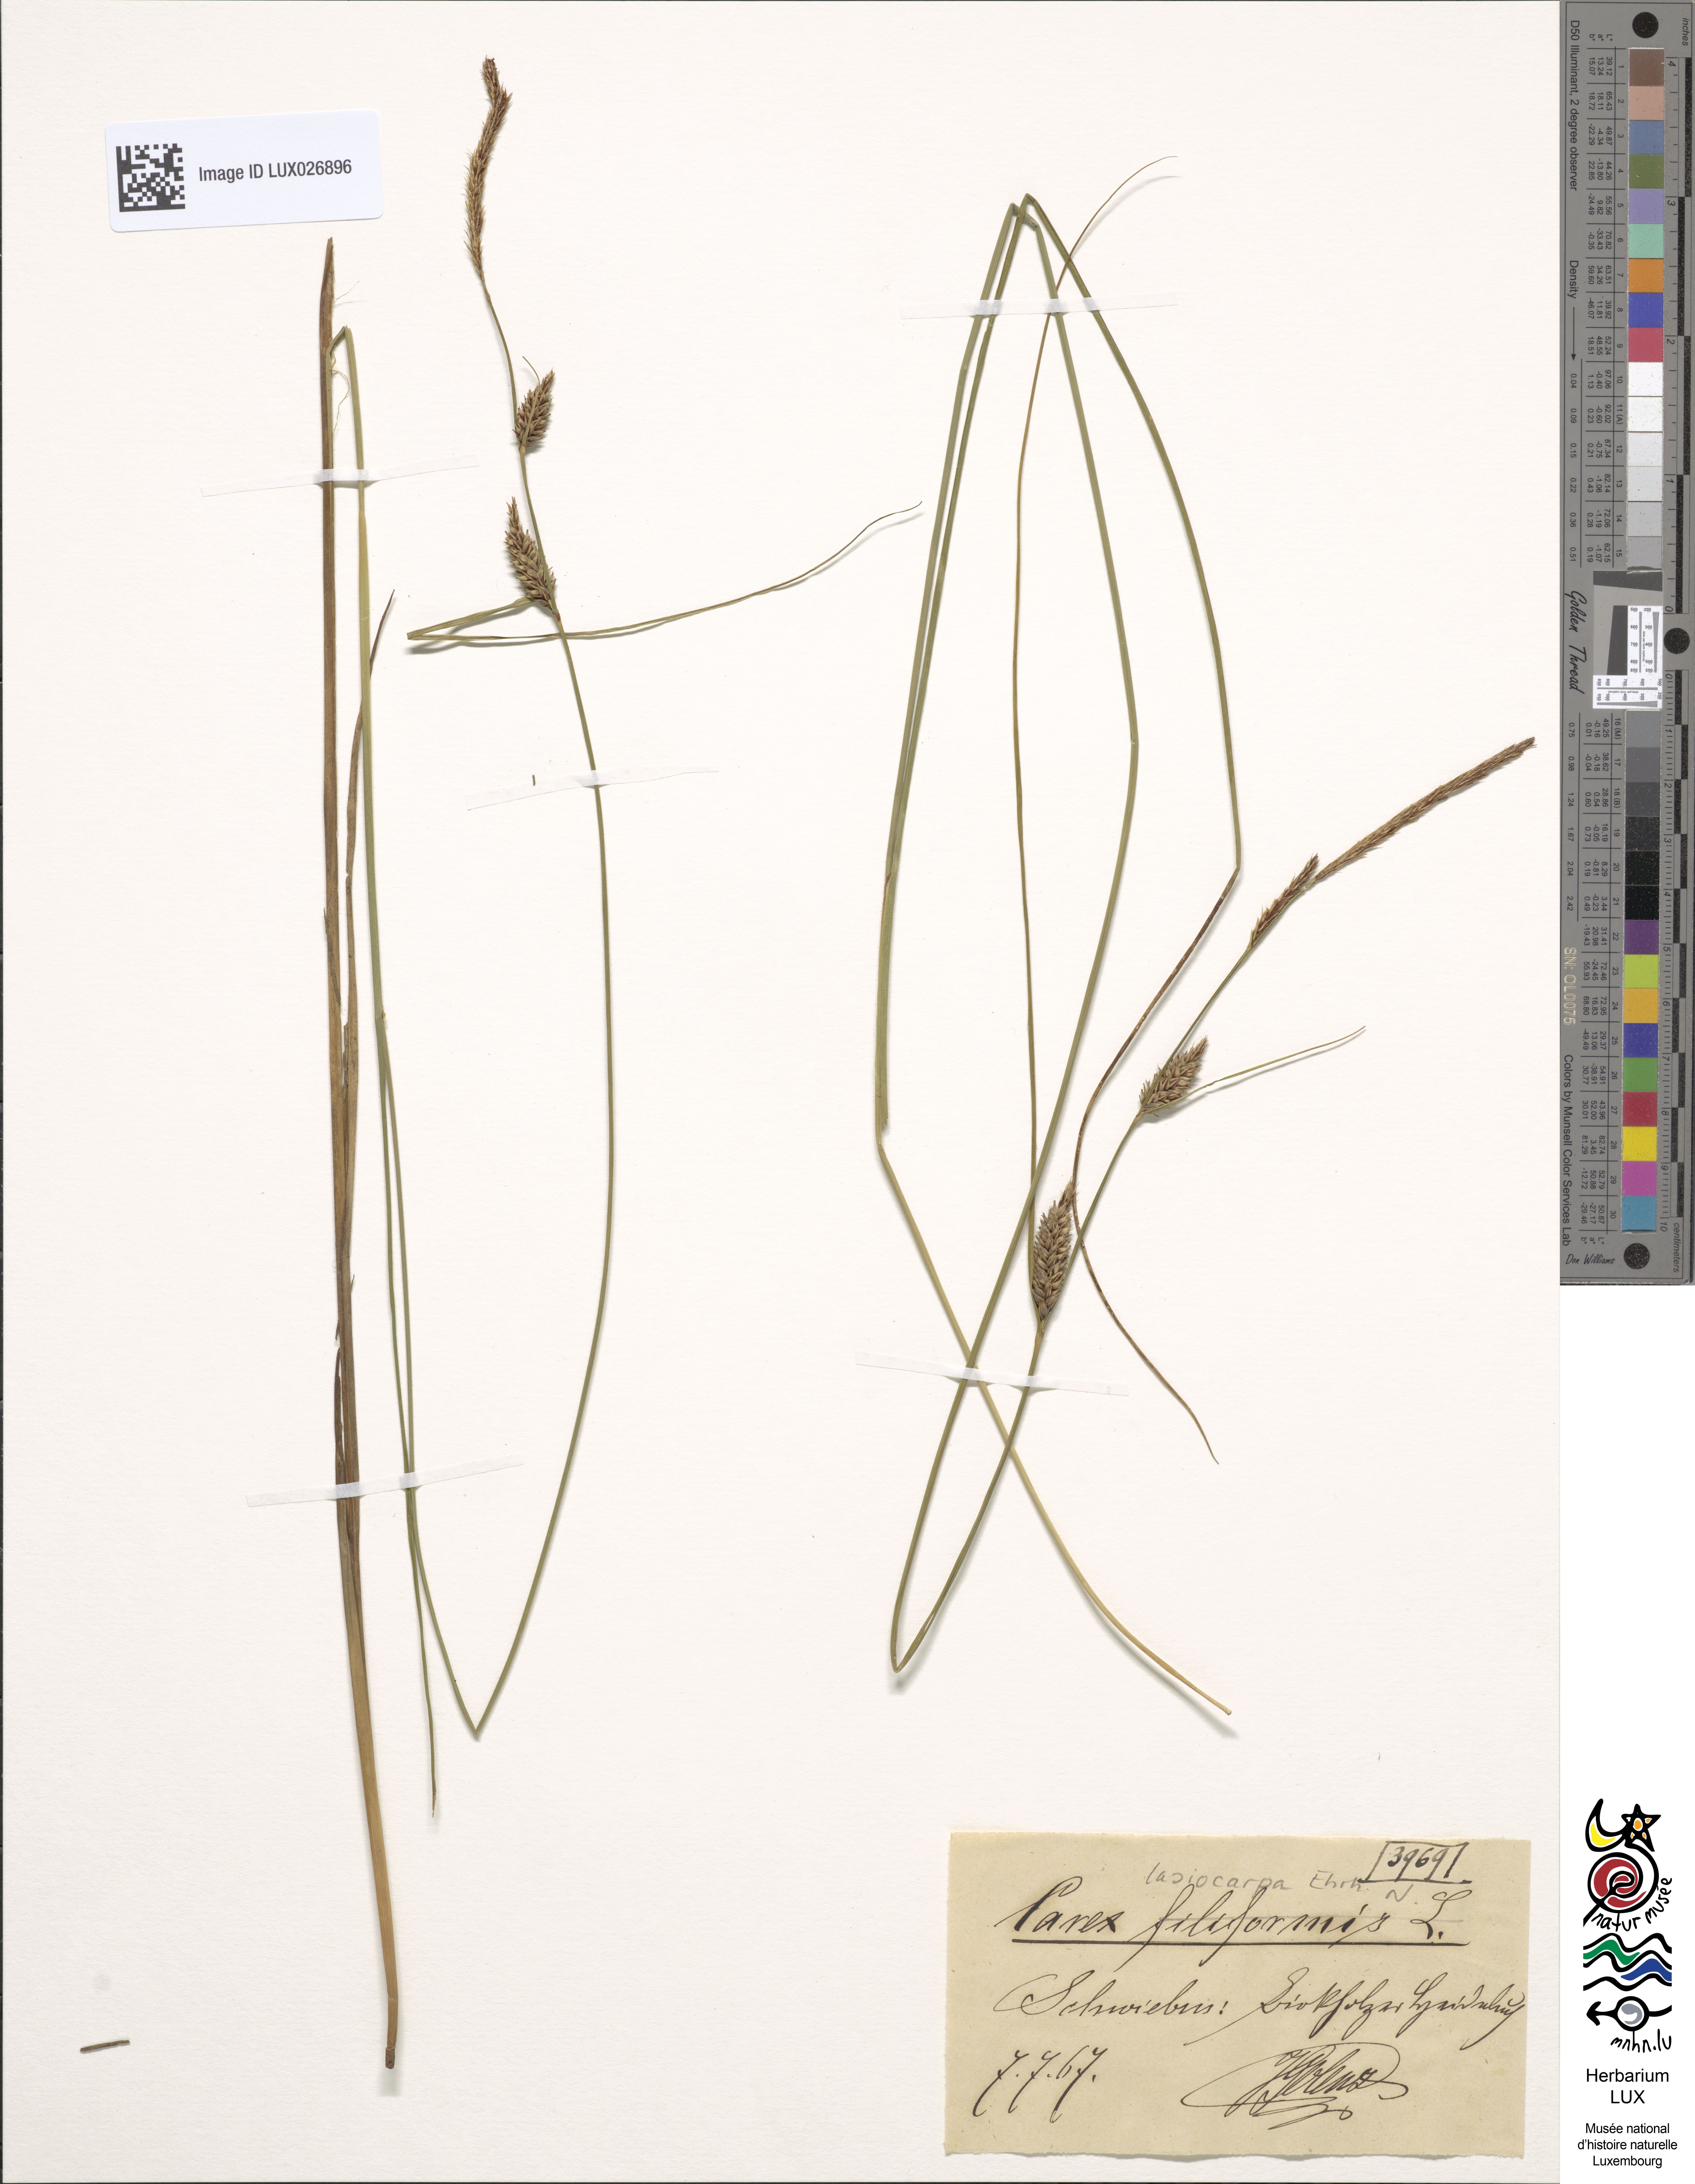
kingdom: Plantae
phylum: Tracheophyta
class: Liliopsida
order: Poales
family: Cyperaceae
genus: Carex
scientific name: Carex lasiocarpa
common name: Slender sedge
